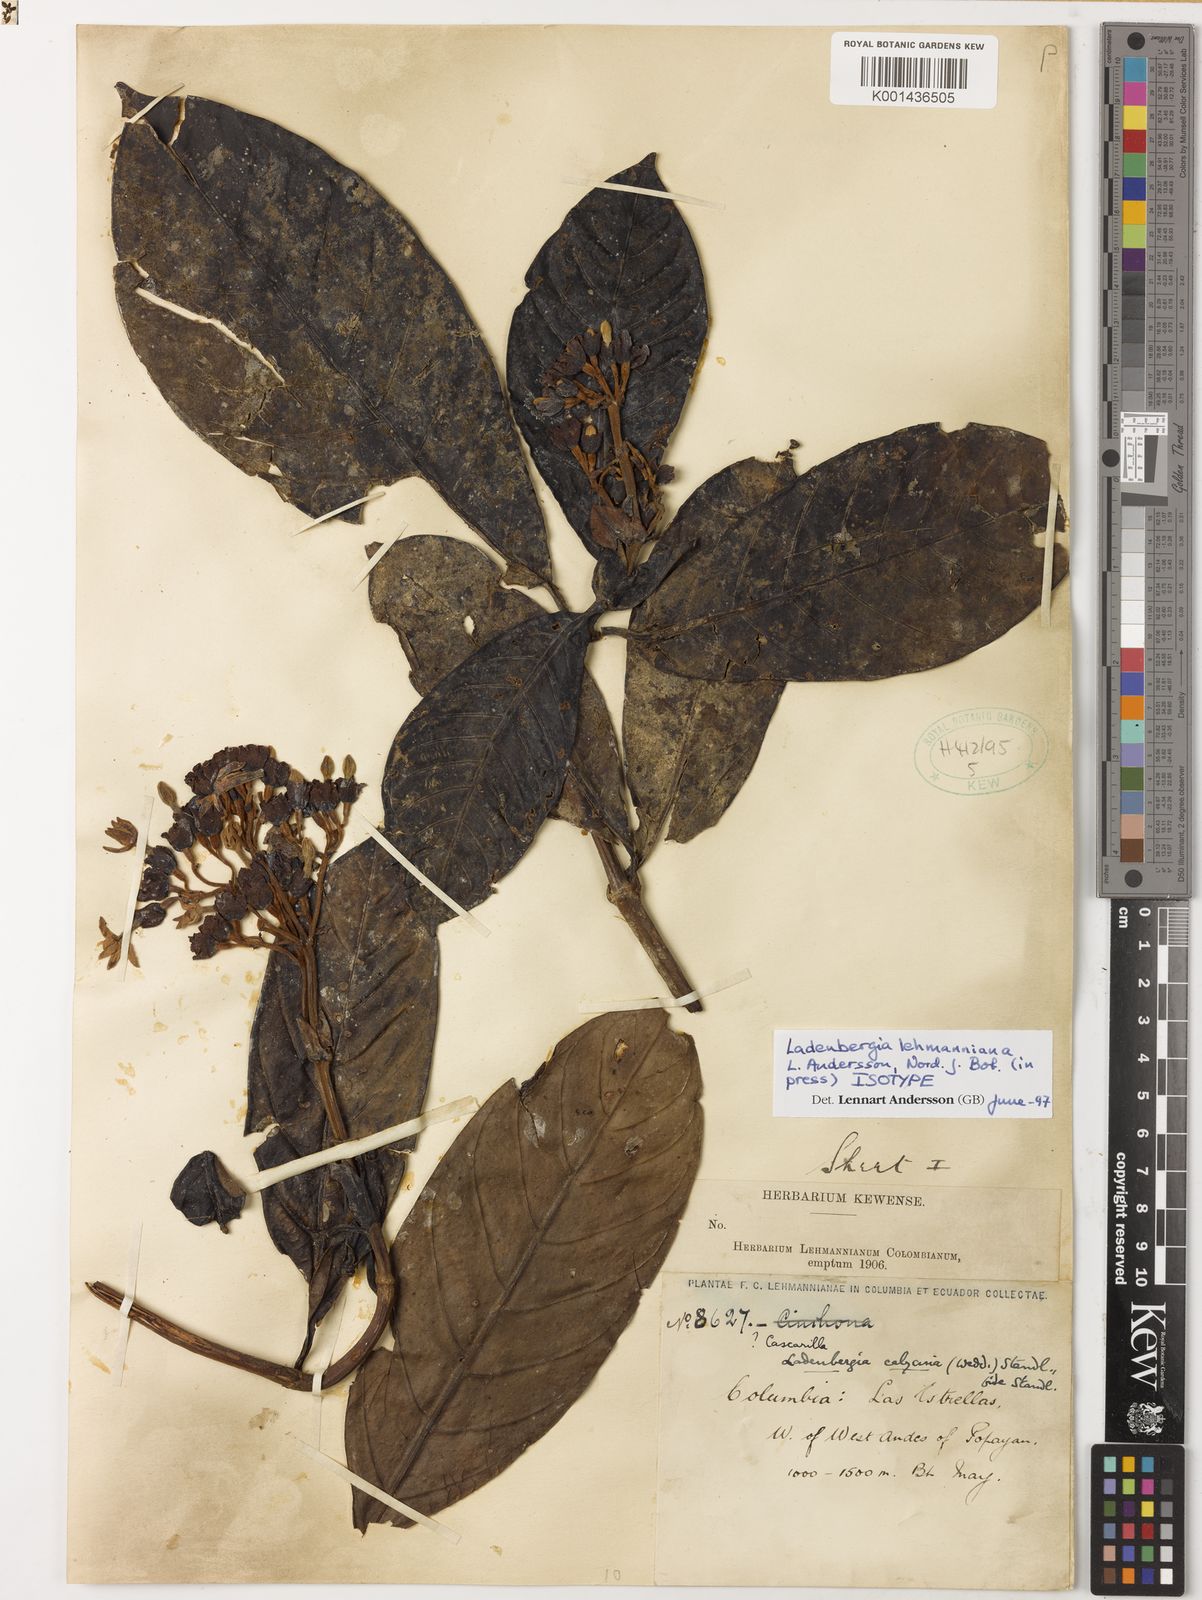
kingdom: Plantae
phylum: Tracheophyta
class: Magnoliopsida
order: Gentianales
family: Rubiaceae
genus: Ladenbergia
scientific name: Ladenbergia lehmanniana
